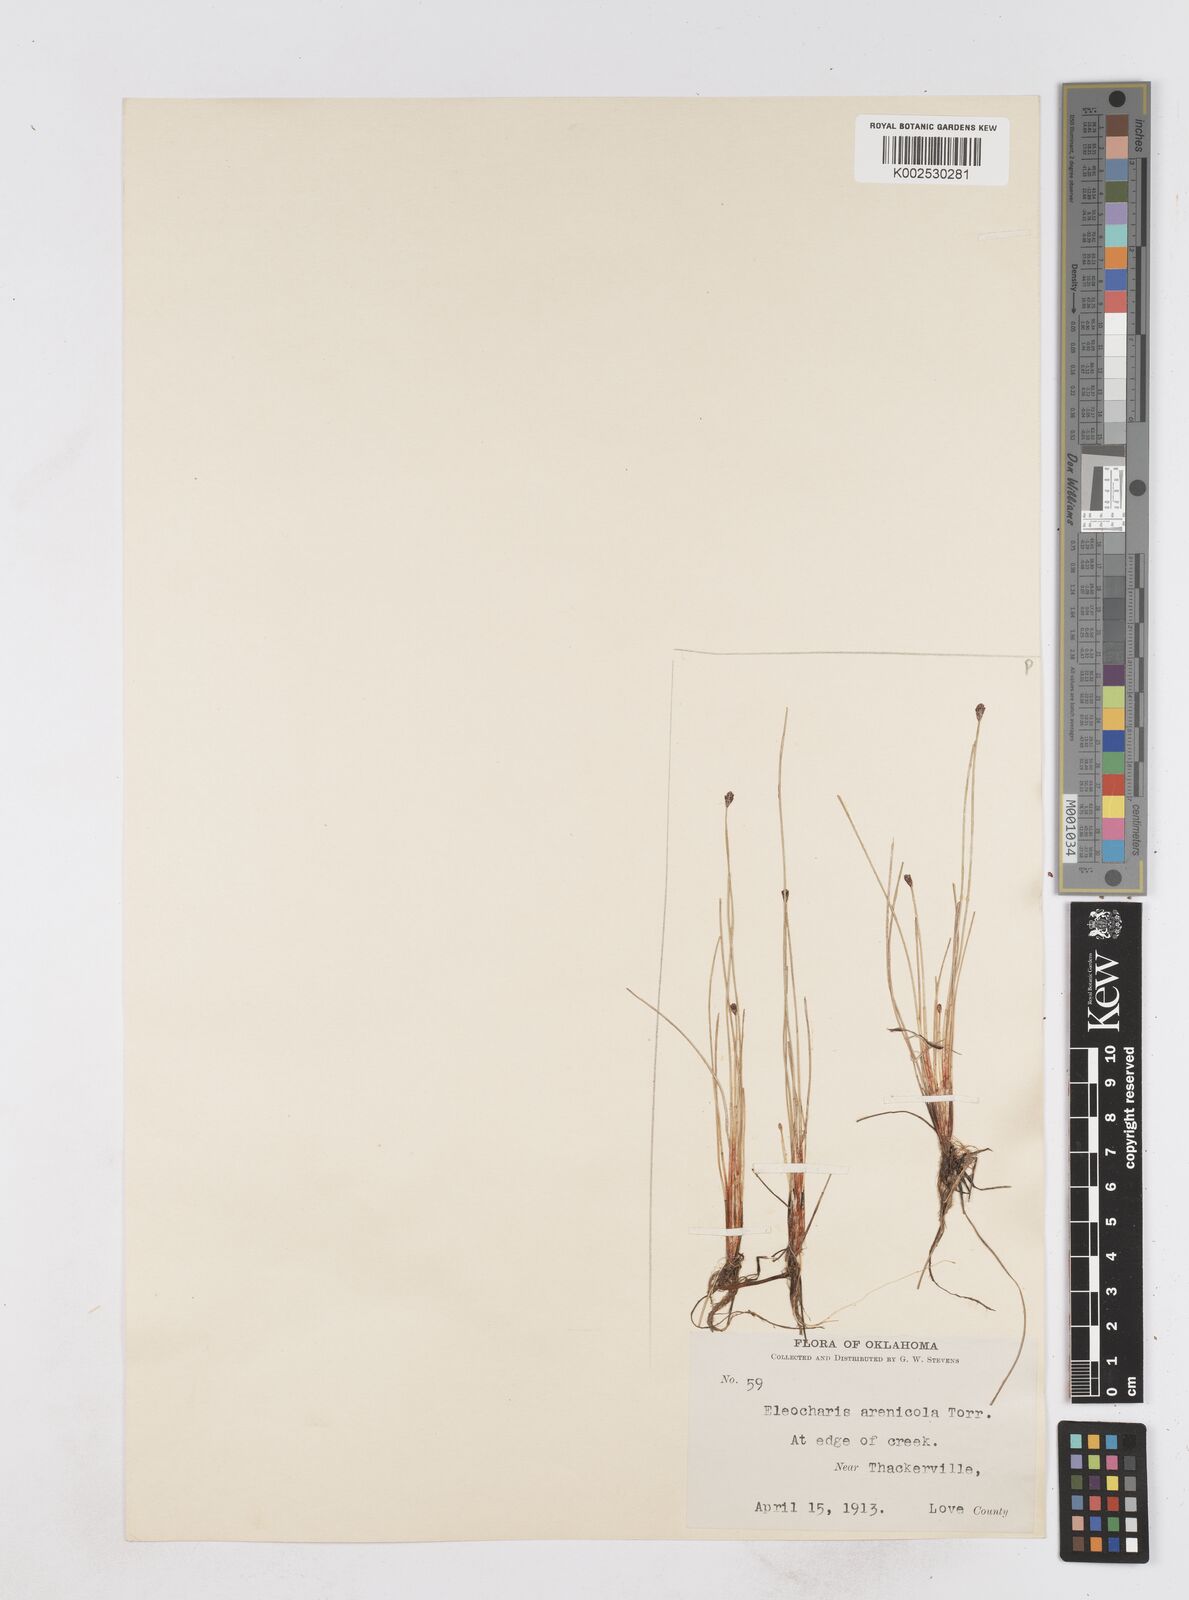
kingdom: Plantae
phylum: Tracheophyta
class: Liliopsida
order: Poales
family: Cyperaceae
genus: Eleocharis
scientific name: Eleocharis montevidensis
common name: Sand spike-rush
